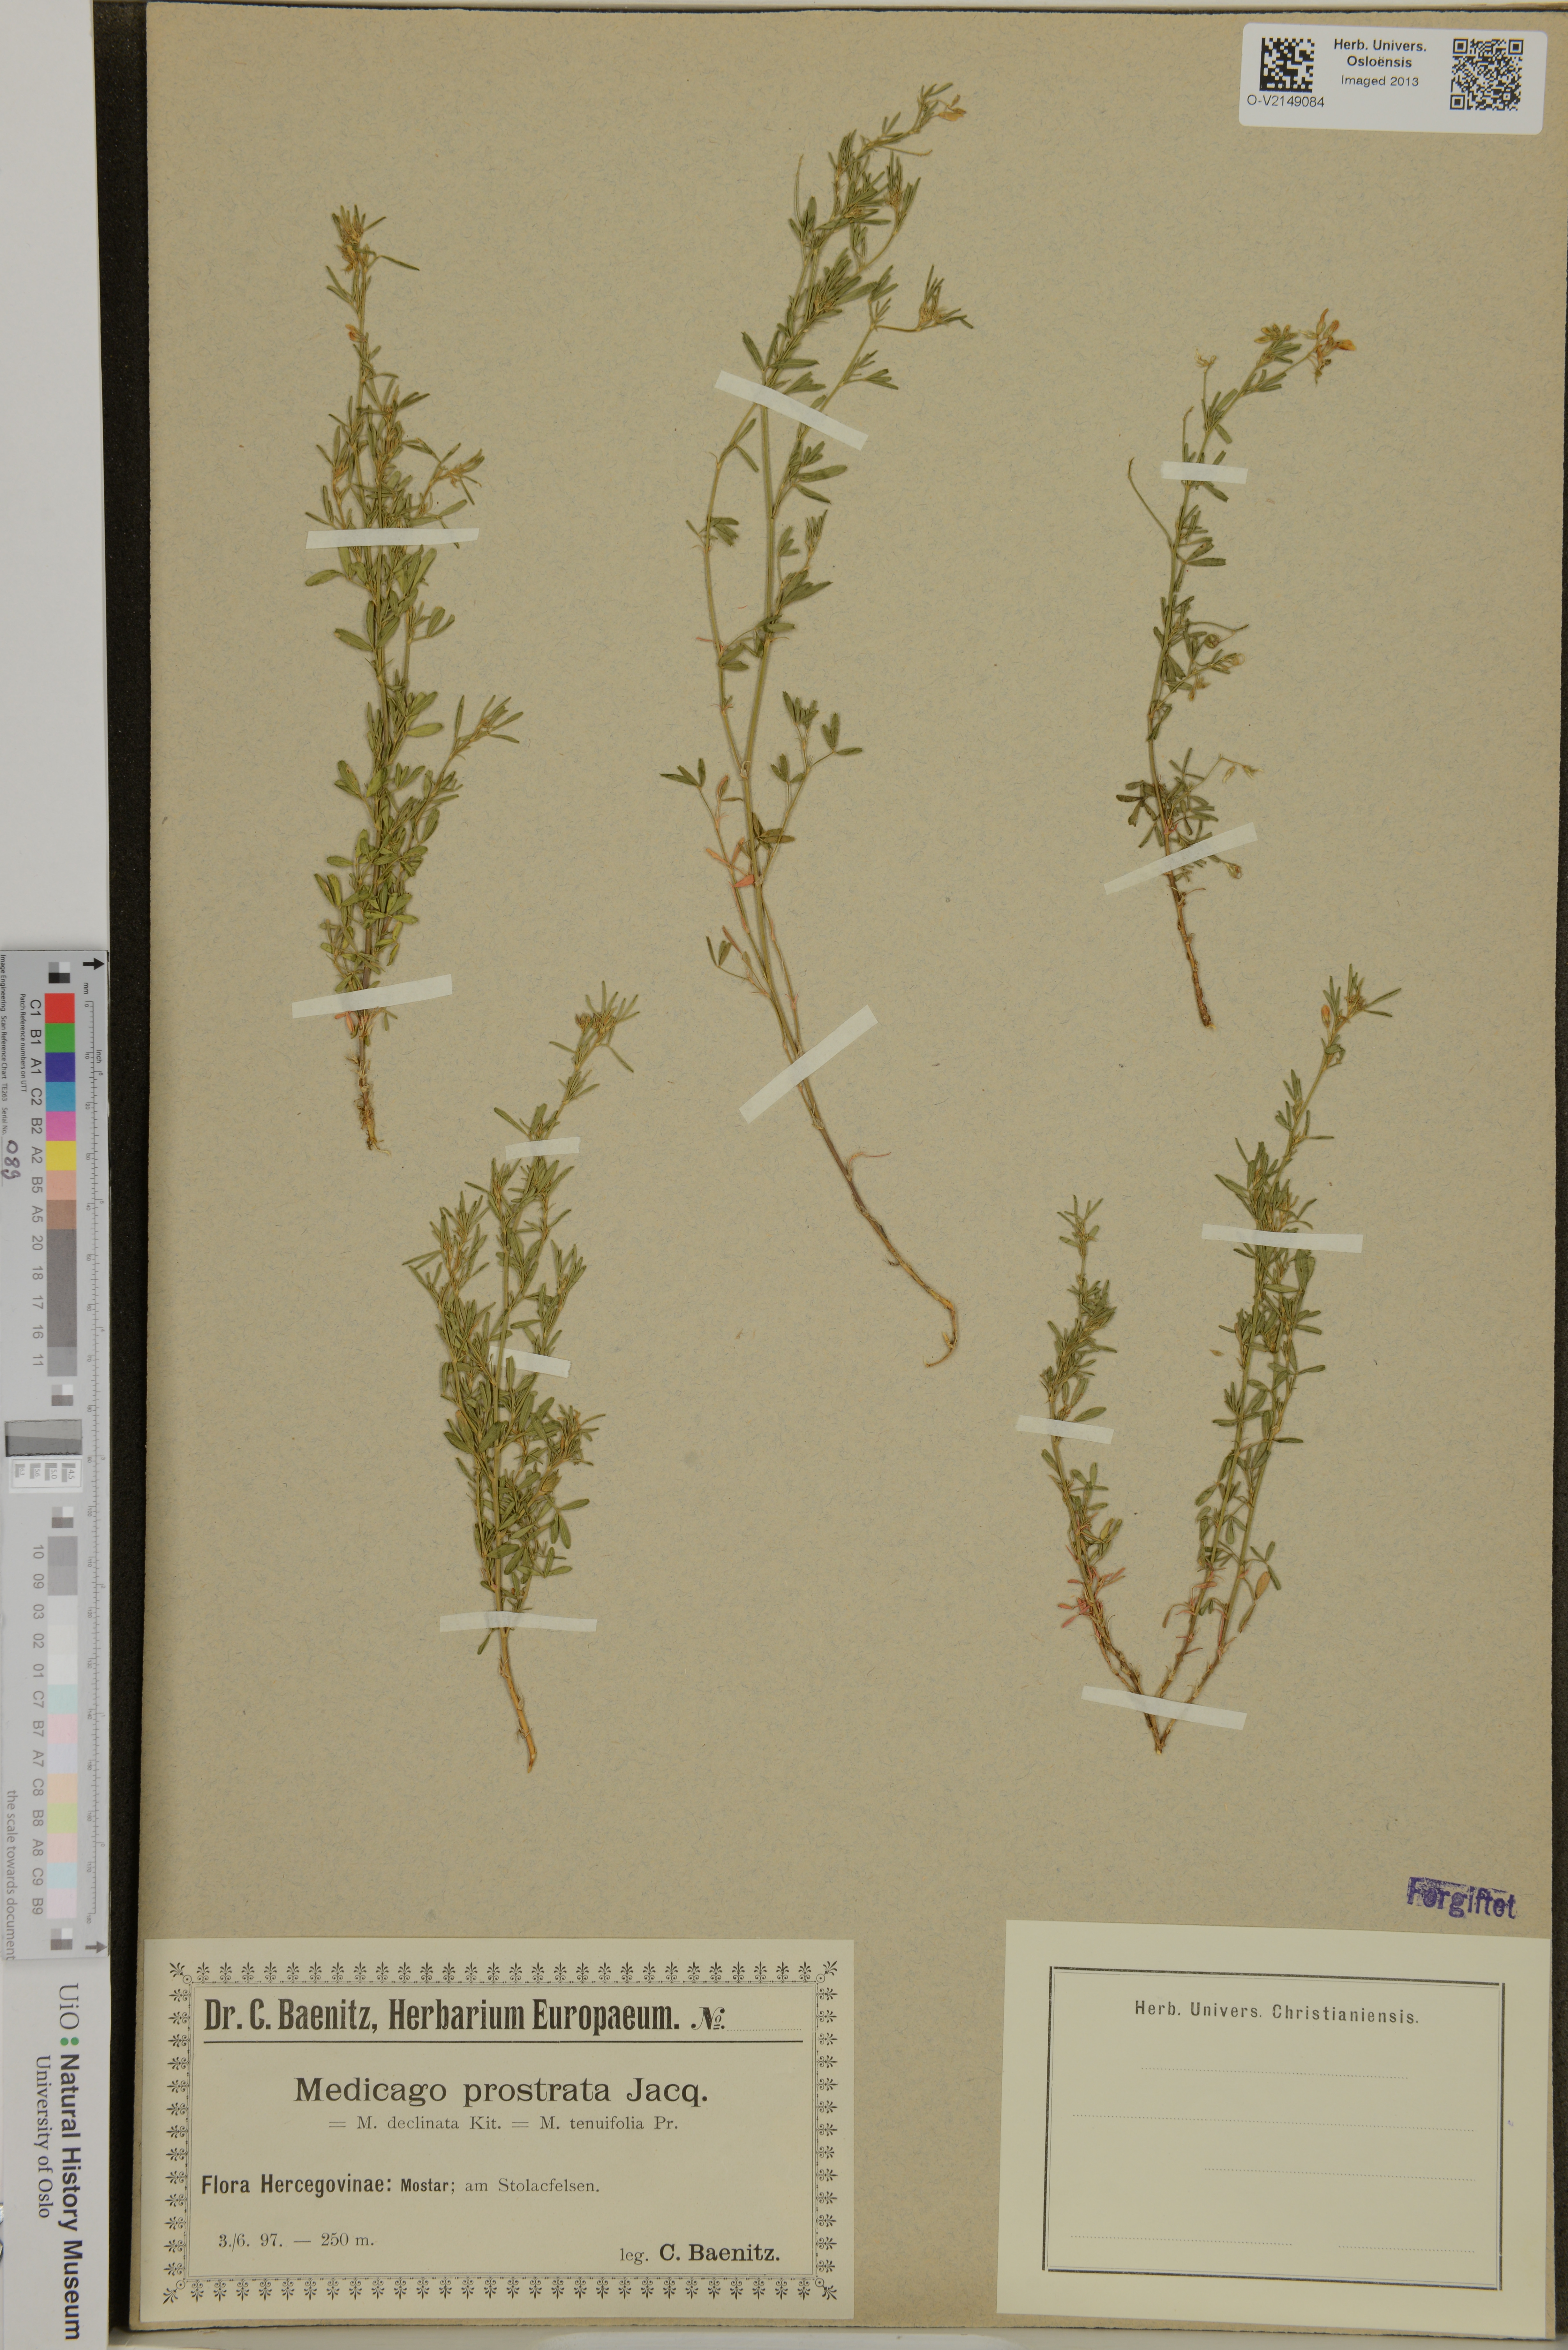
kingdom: Plantae
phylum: Tracheophyta
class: Magnoliopsida
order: Fabales
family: Fabaceae
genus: Medicago
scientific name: Medicago prostrata
